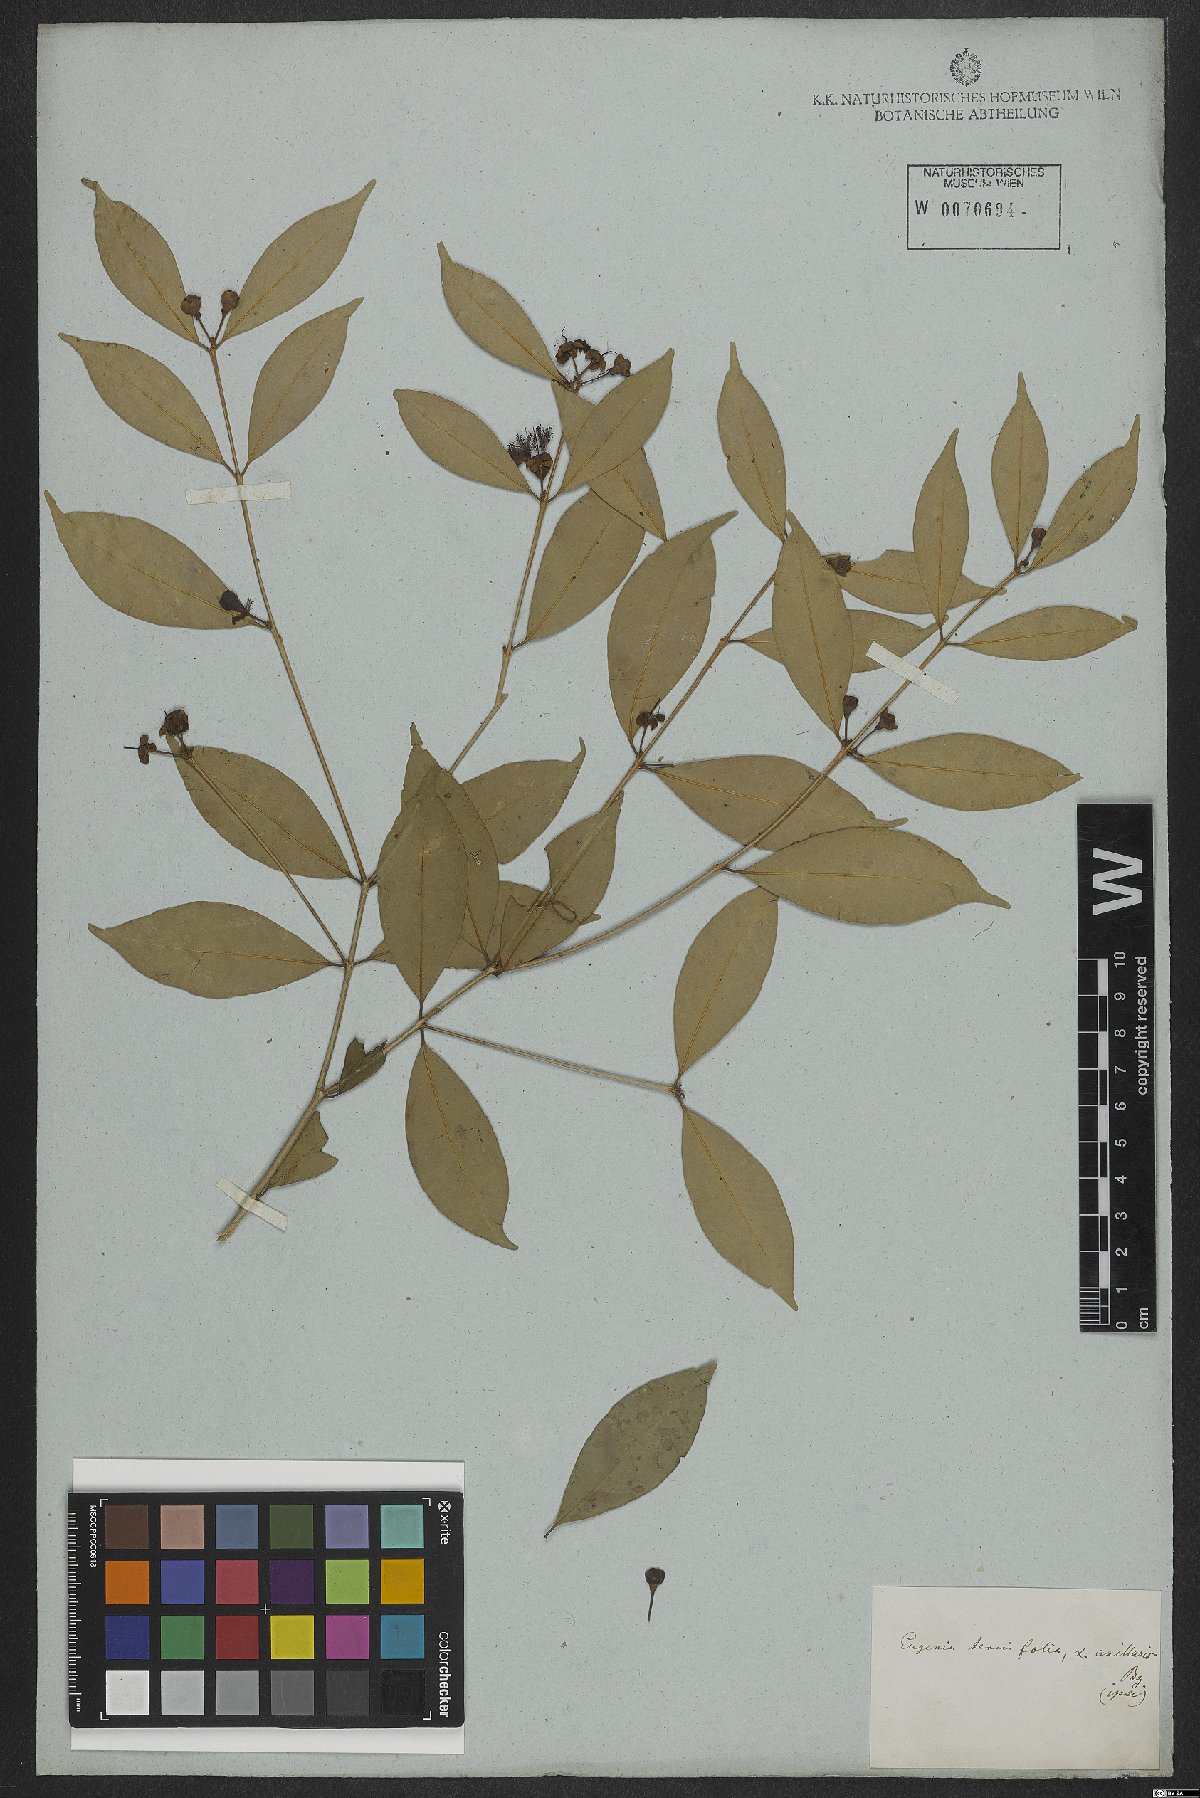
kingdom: Plantae
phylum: Tracheophyta
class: Magnoliopsida
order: Myrtales
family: Myrtaceae
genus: Eugenia
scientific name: Eugenia decussata
